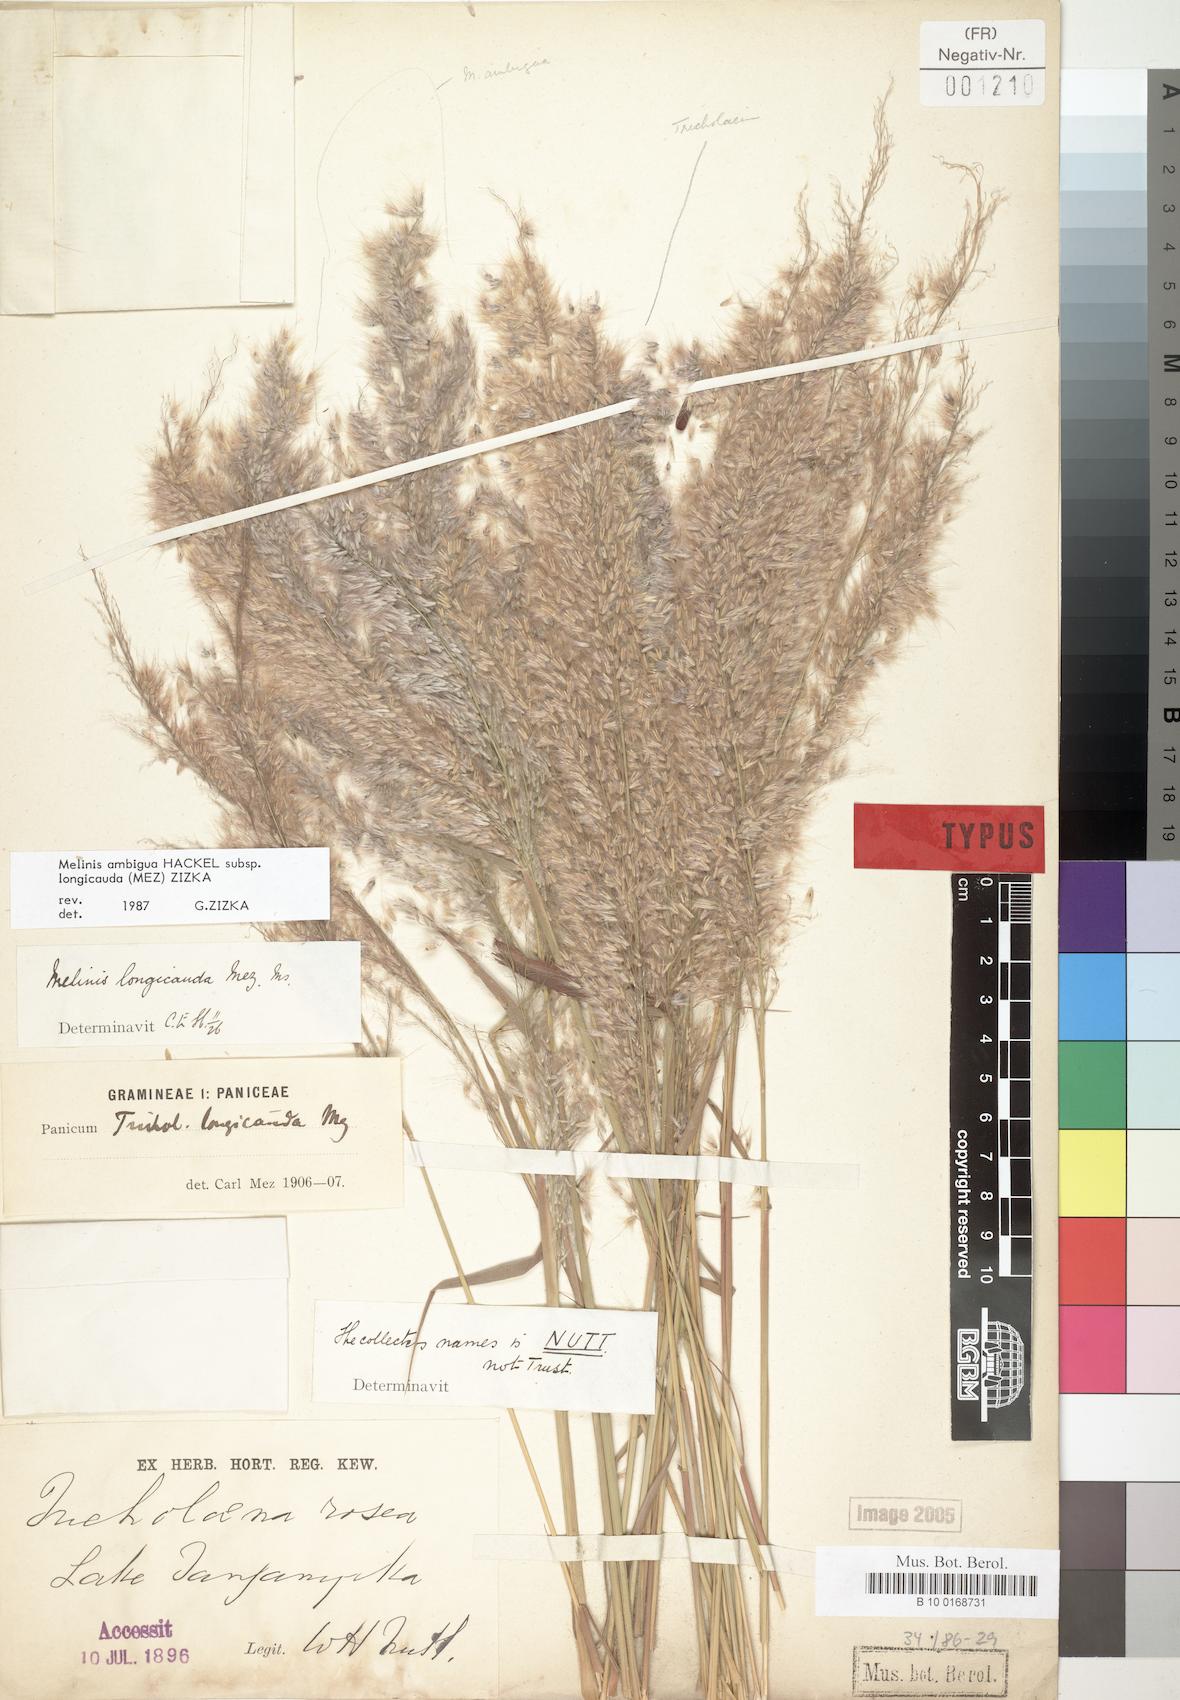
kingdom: Plantae
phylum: Tracheophyta
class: Liliopsida
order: Poales
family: Poaceae
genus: Melinis
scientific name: Melinis ambigua
